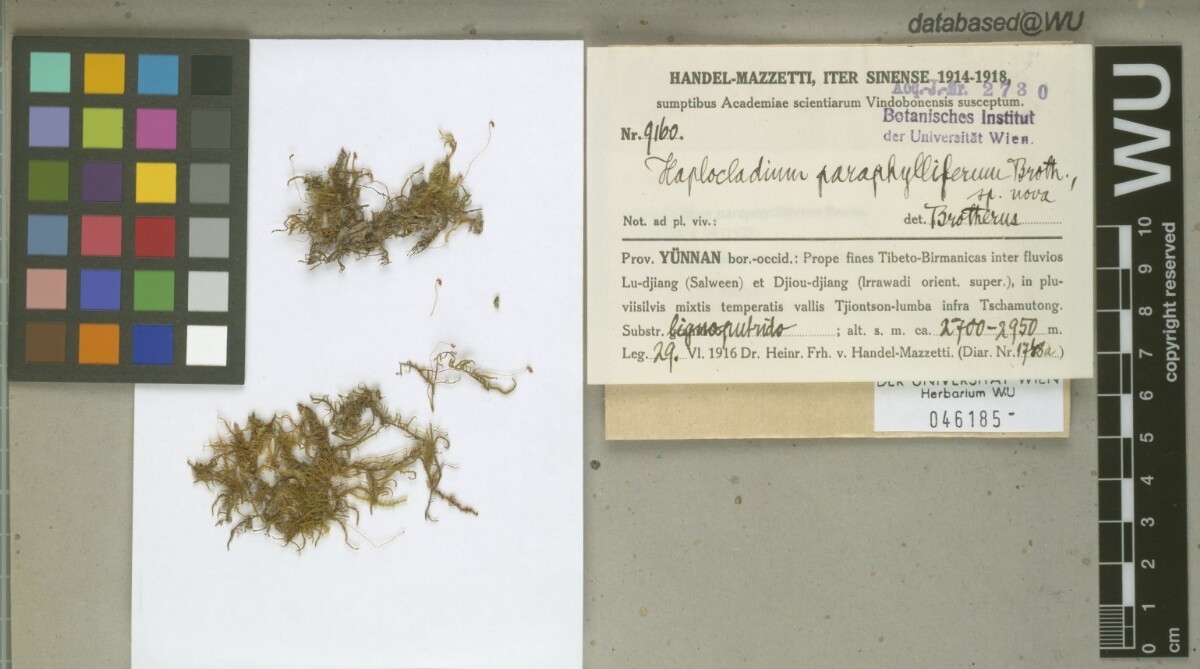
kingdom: Plantae
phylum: Bryophyta
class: Bryopsida
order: Hypnales
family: Leskeaceae
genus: Haplocladium
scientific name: Haplocladium microphyllum
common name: Tiny-leaved haplocladium
